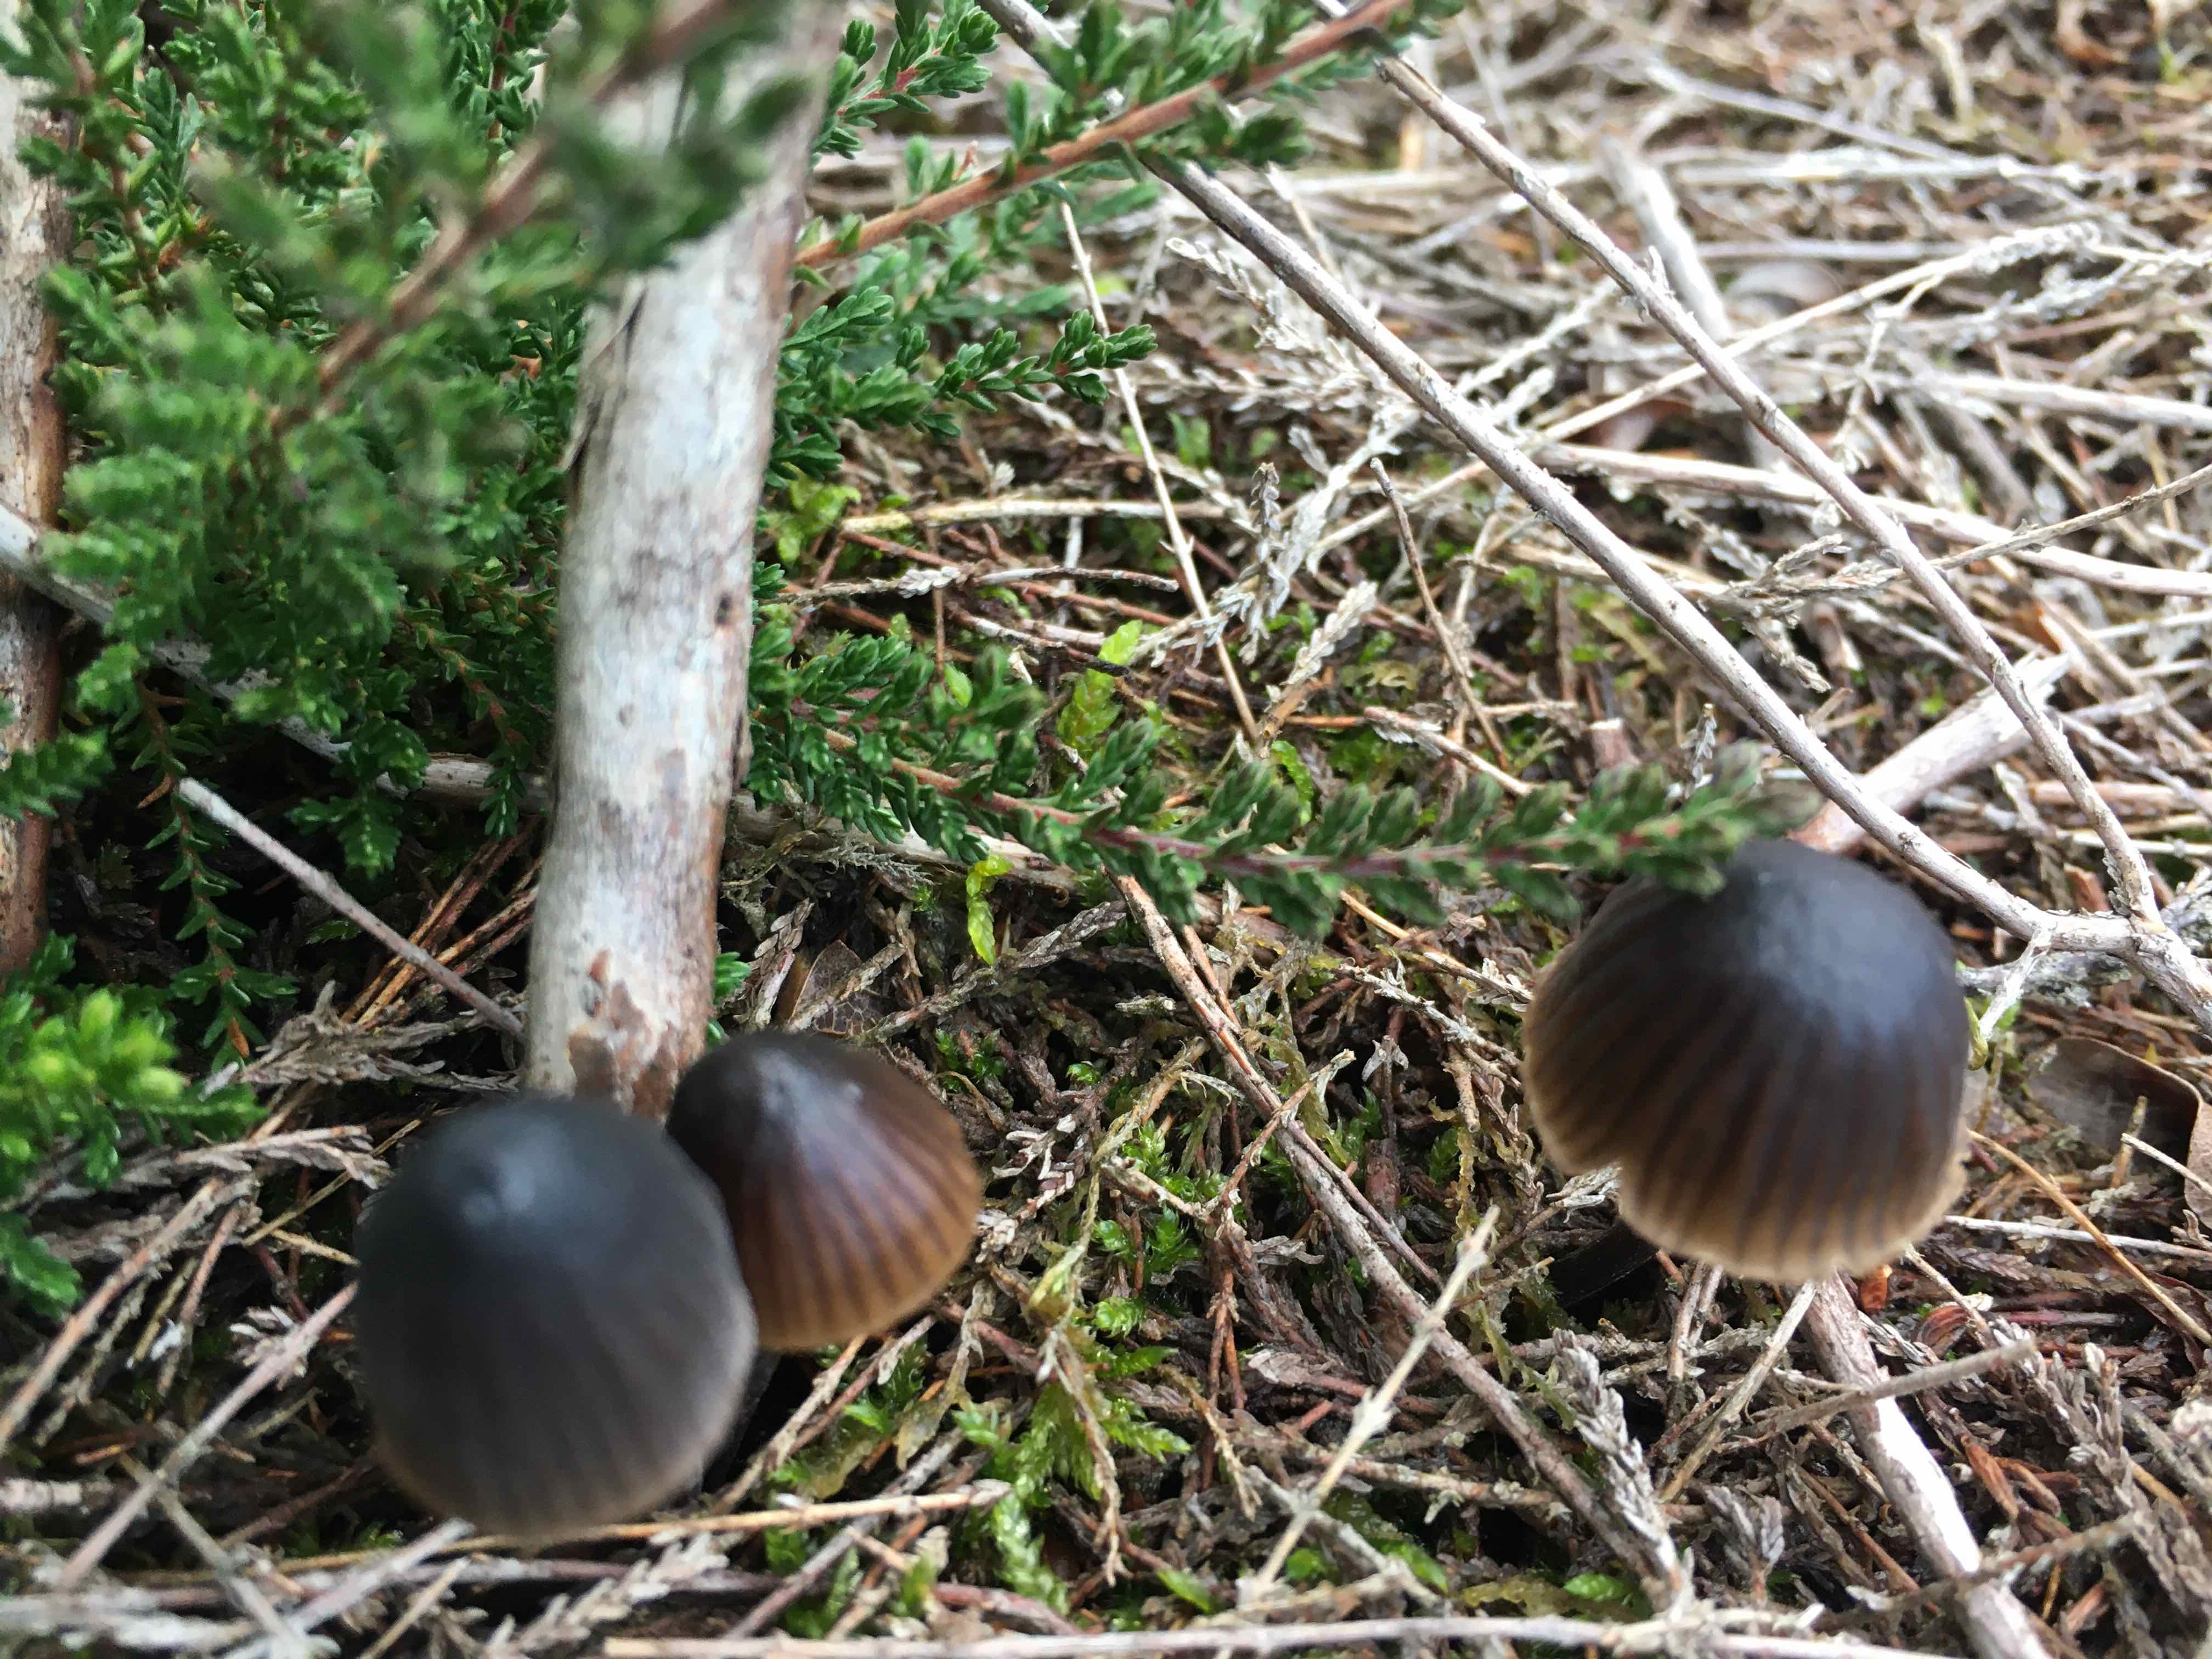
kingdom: Fungi
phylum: Basidiomycota
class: Agaricomycetes
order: Agaricales
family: Mycenaceae
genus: Mycena
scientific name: Mycena
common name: huesvamp
